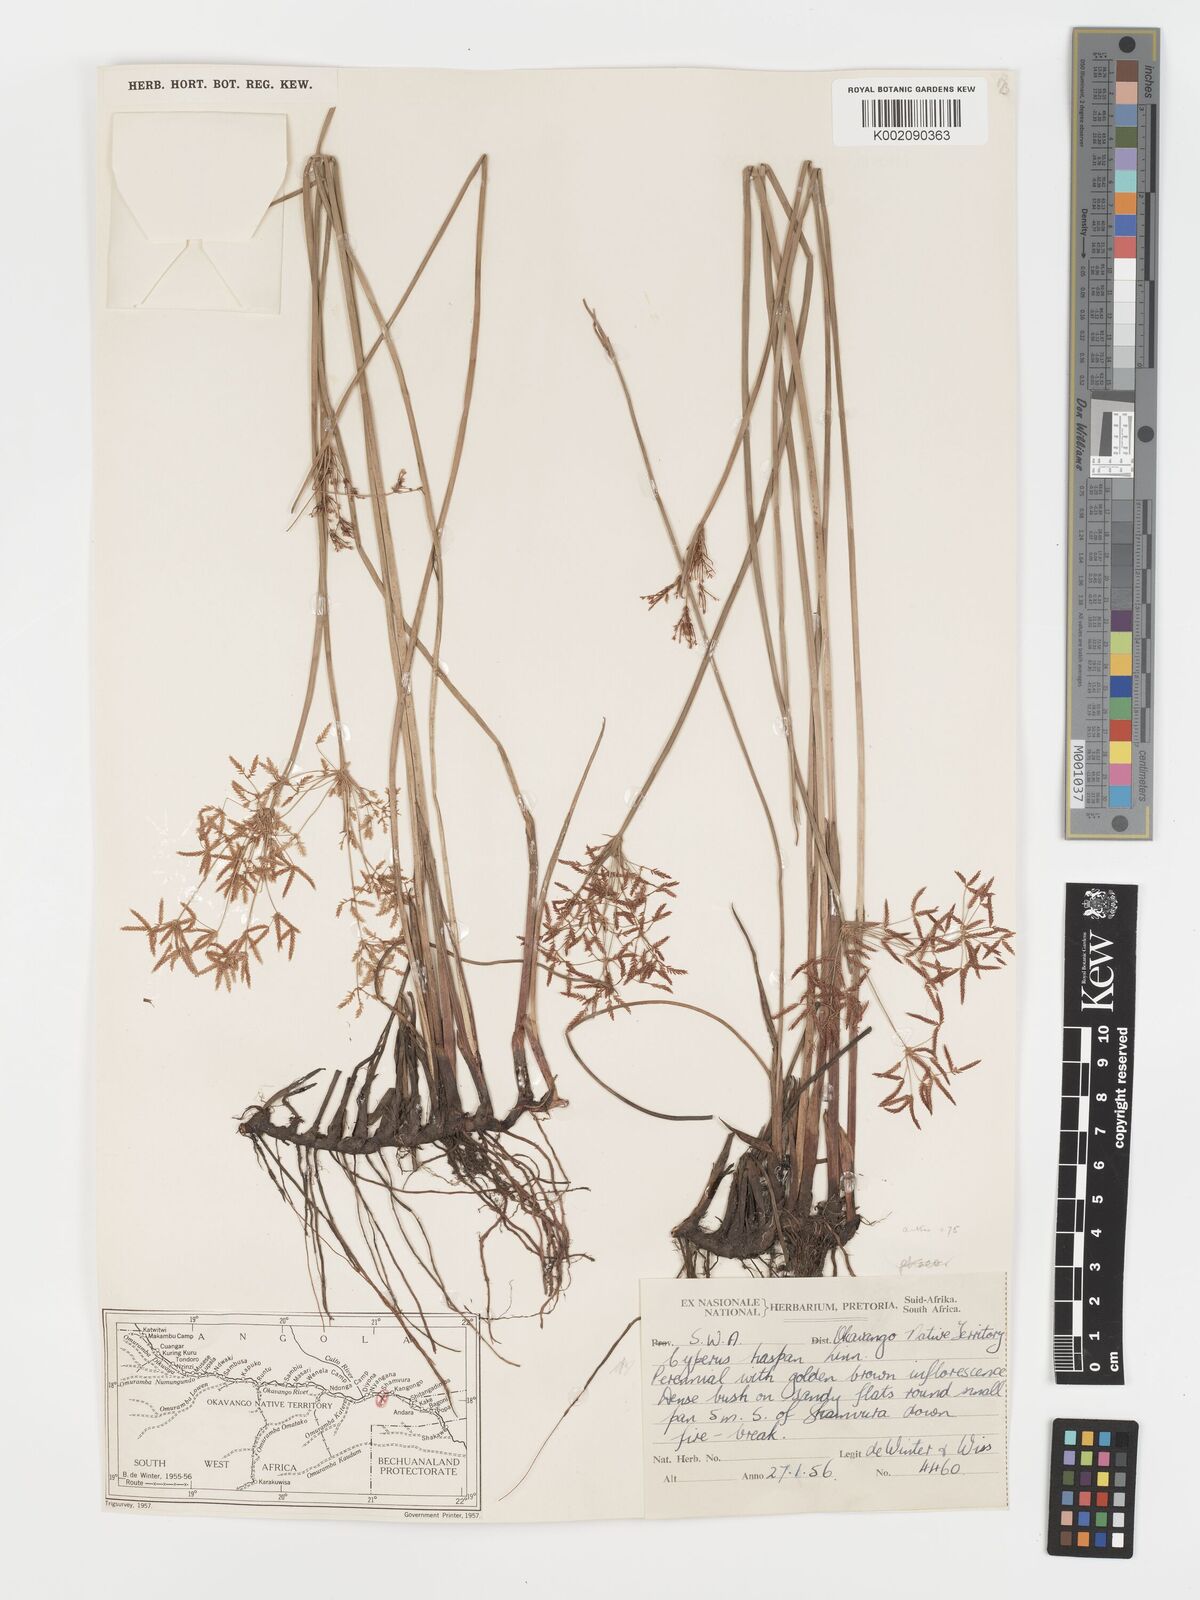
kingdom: Plantae
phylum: Tracheophyta
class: Liliopsida
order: Poales
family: Cyperaceae
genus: Cyperus
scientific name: Cyperus haspan
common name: Haspan flatsedge
